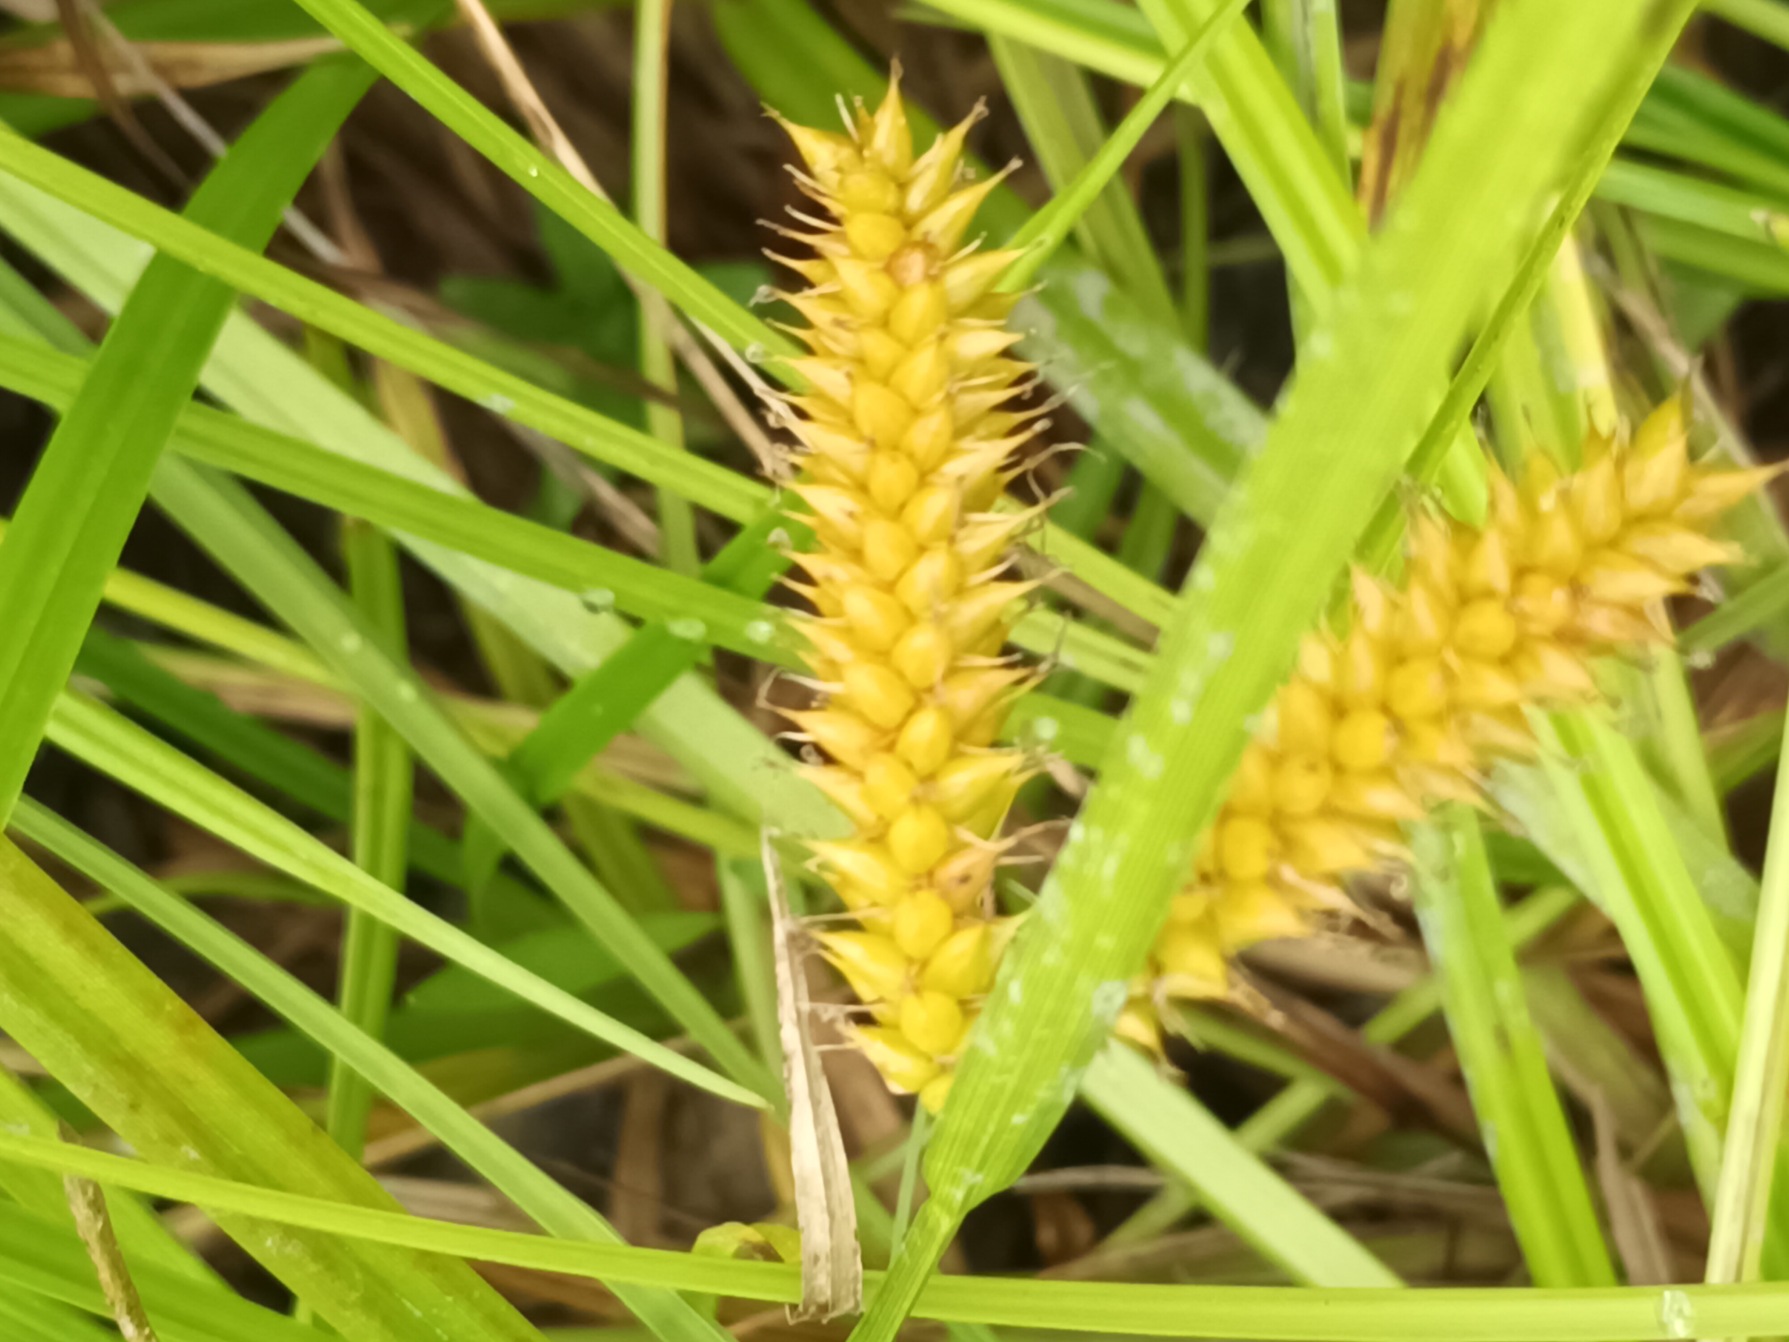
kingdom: Plantae
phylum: Tracheophyta
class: Liliopsida
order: Poales
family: Cyperaceae
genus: Carex
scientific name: Carex vesicaria
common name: Blære-star
